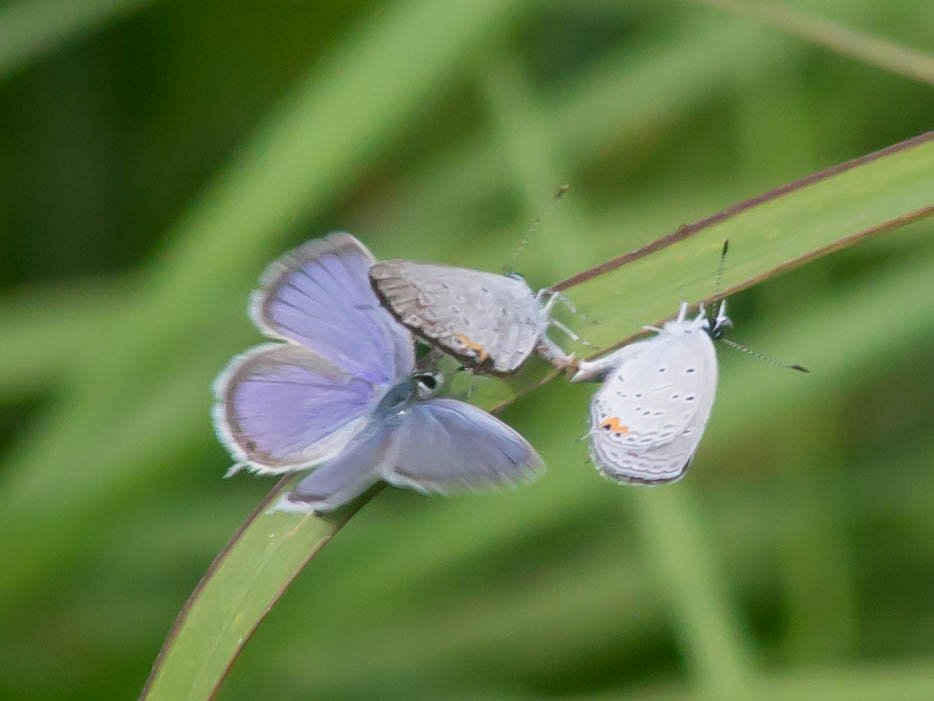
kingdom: Animalia
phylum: Arthropoda
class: Insecta
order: Lepidoptera
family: Lycaenidae
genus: Elkalyce
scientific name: Elkalyce comyntas
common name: Eastern Tailed-Blue
